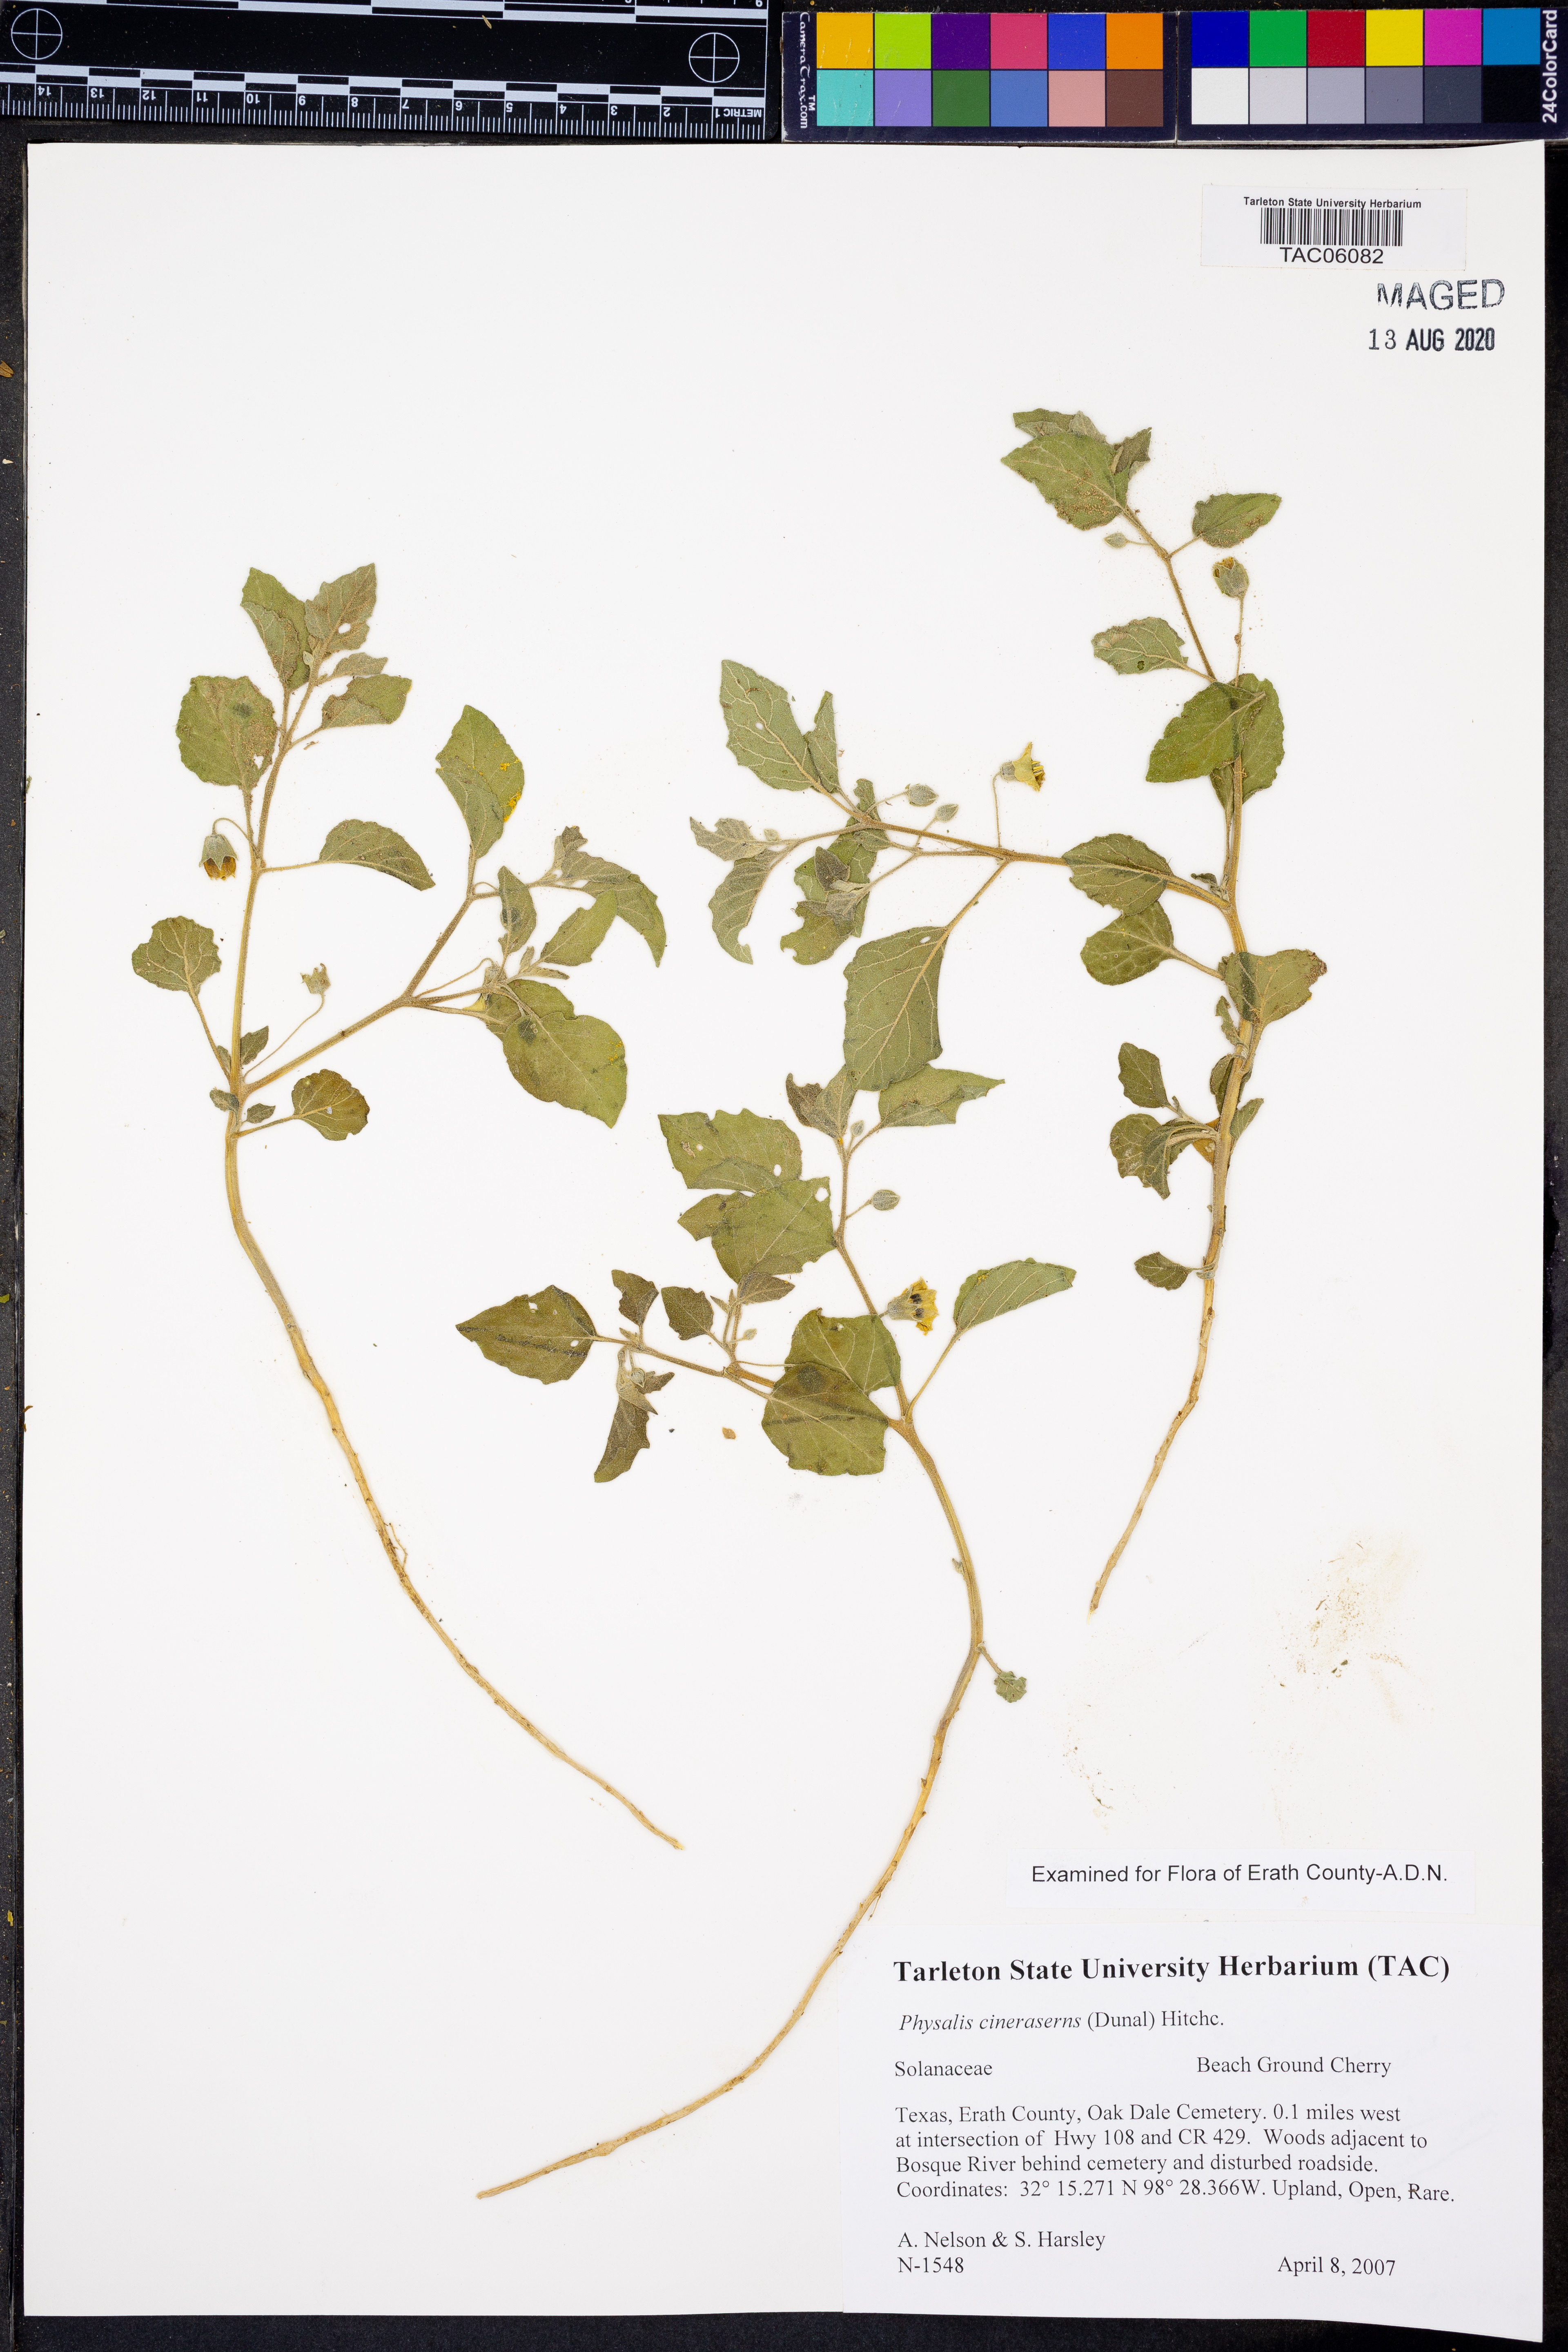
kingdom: Plantae
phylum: Tracheophyta
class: Magnoliopsida
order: Solanales
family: Solanaceae
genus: Physalis
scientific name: Physalis cinerascens
